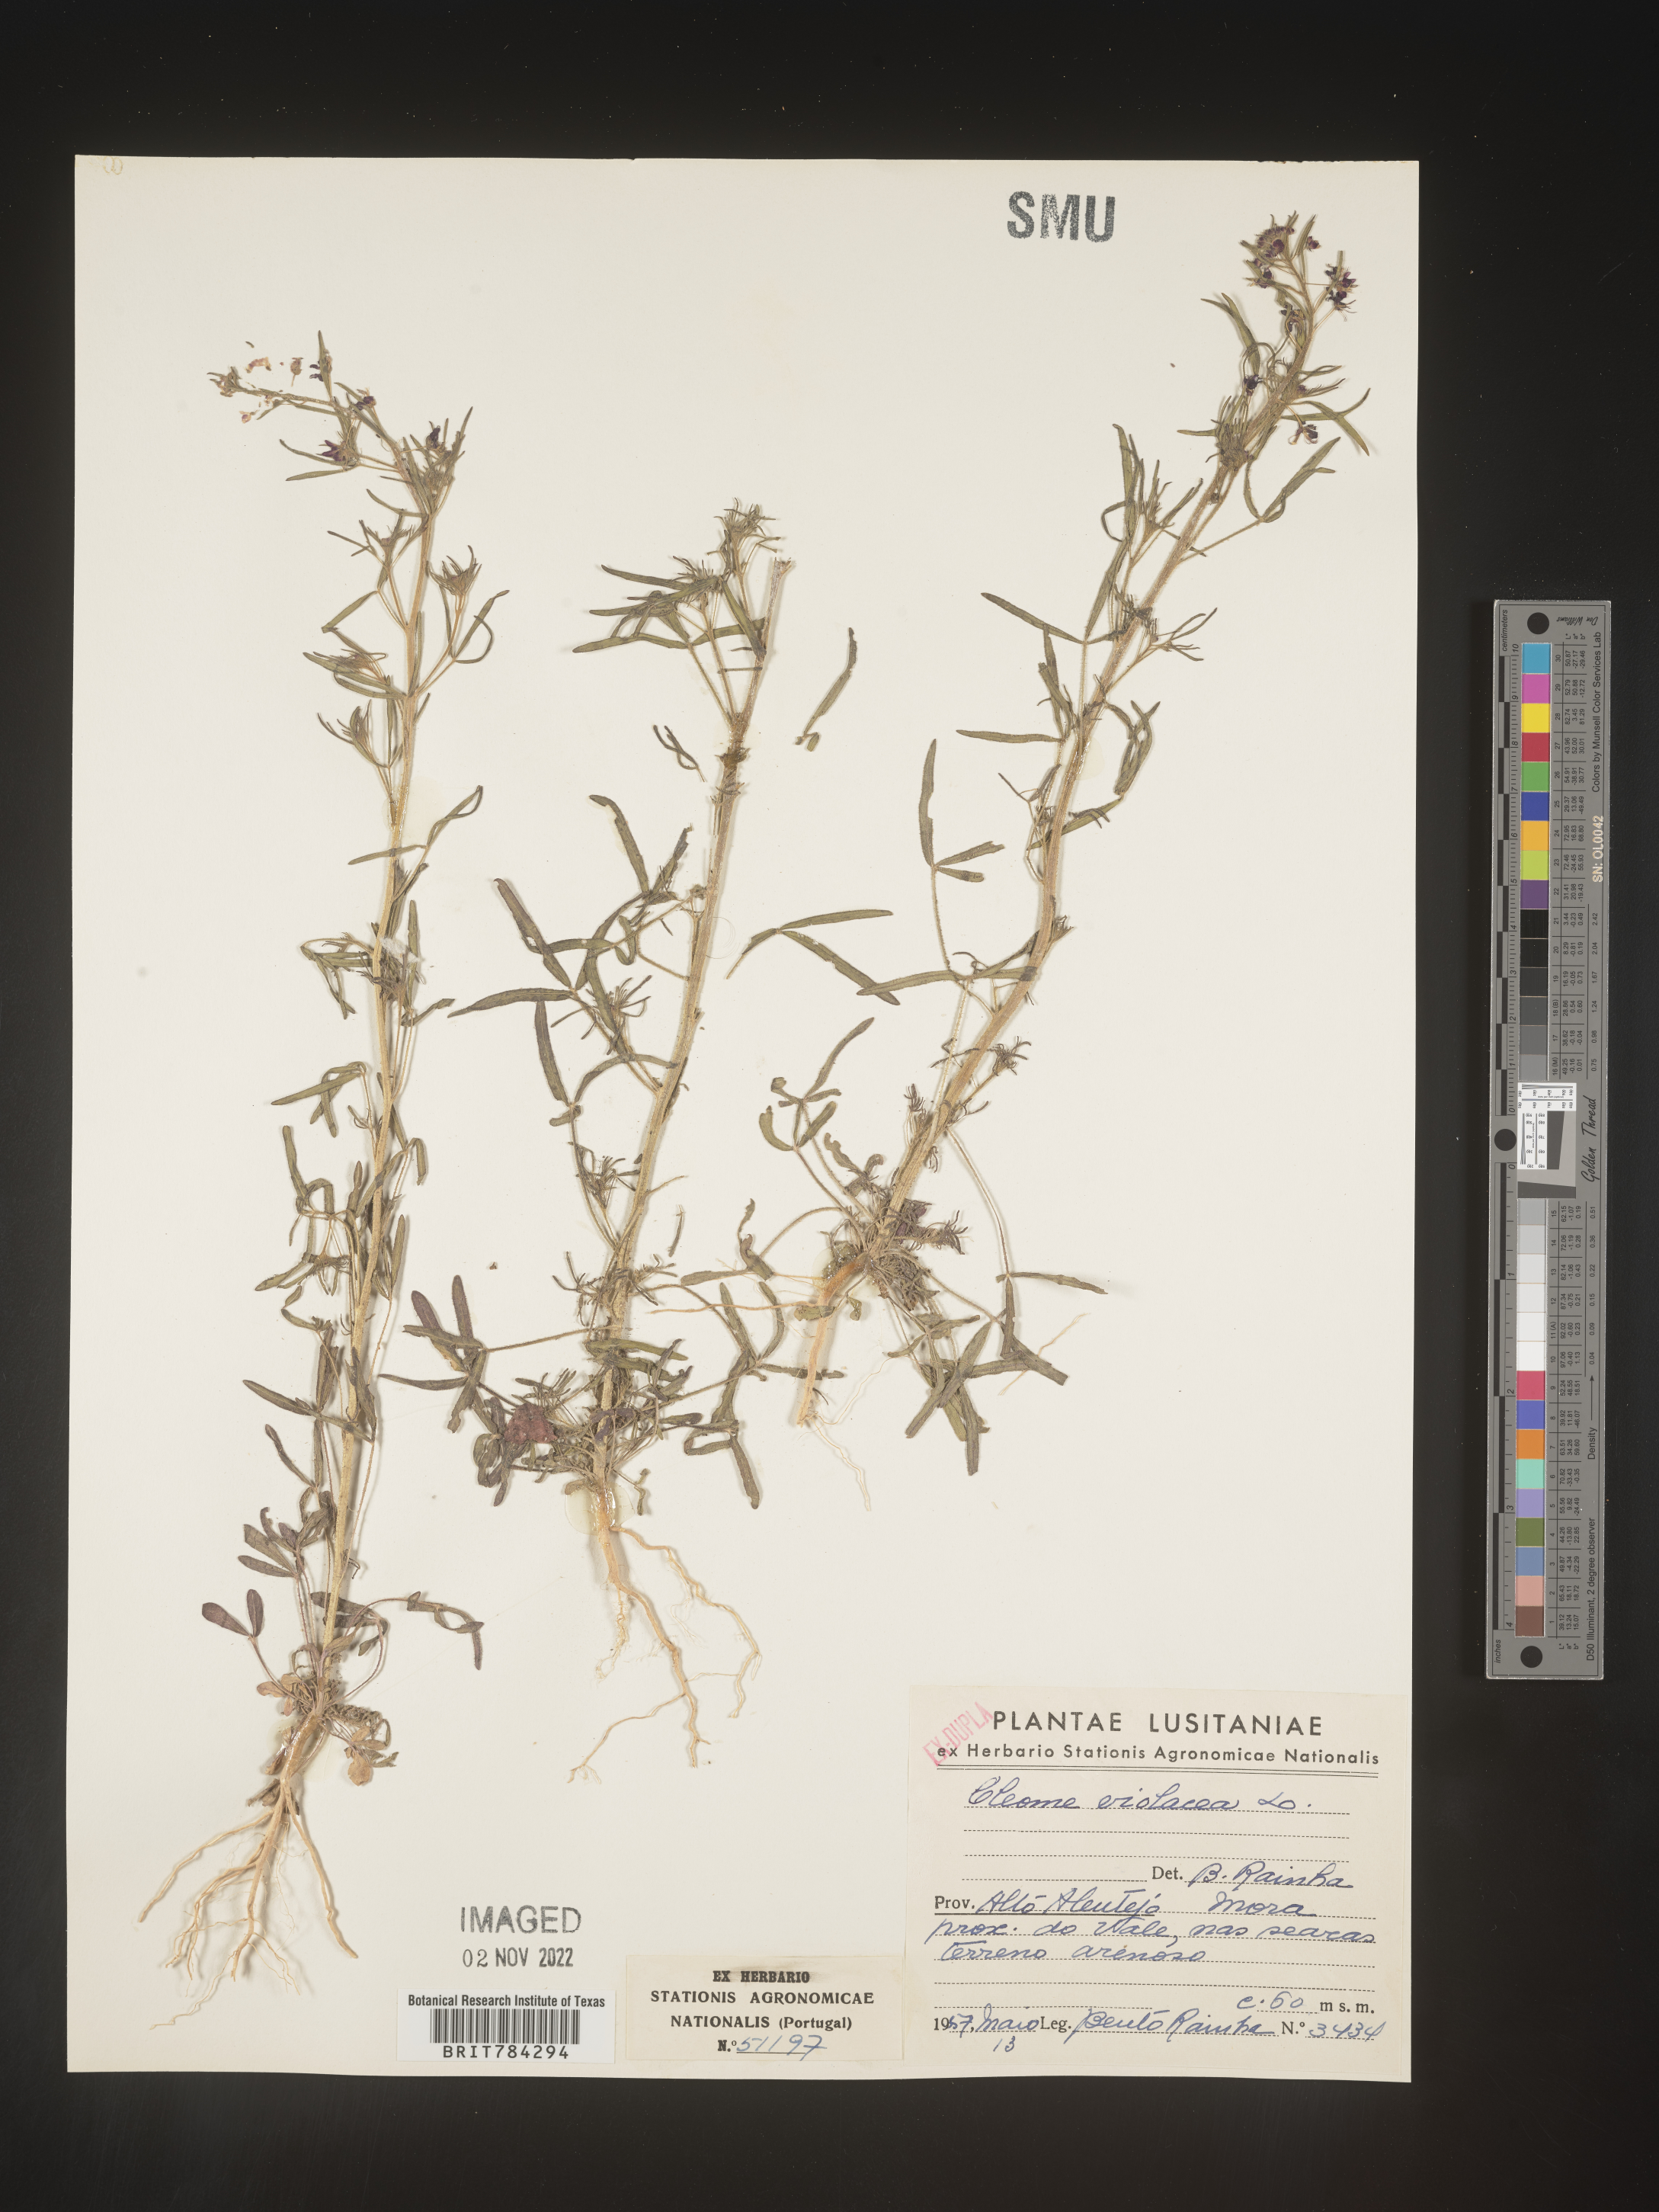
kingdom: Plantae
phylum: Tracheophyta
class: Magnoliopsida
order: Brassicales
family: Cleomaceae
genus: Cleome
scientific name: Cleome
